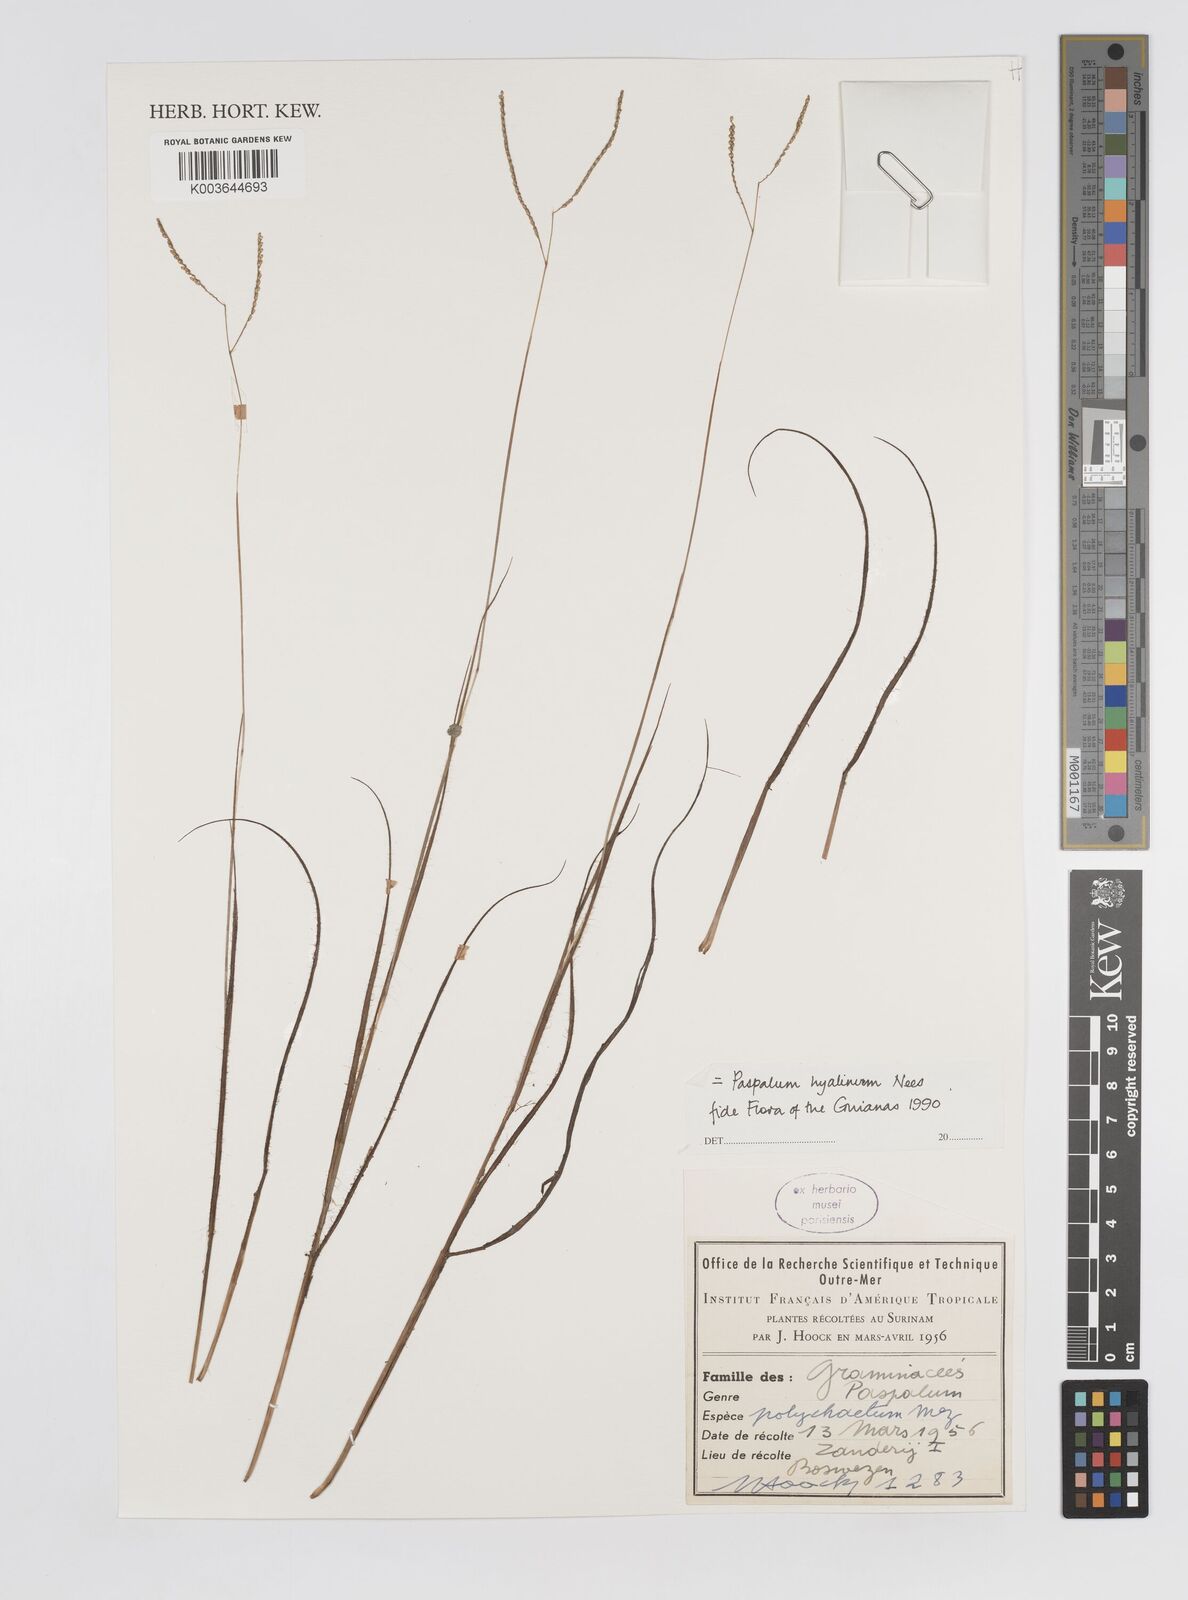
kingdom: Plantae
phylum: Tracheophyta
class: Liliopsida
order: Poales
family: Poaceae
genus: Paspalum
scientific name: Paspalum hyalinum
